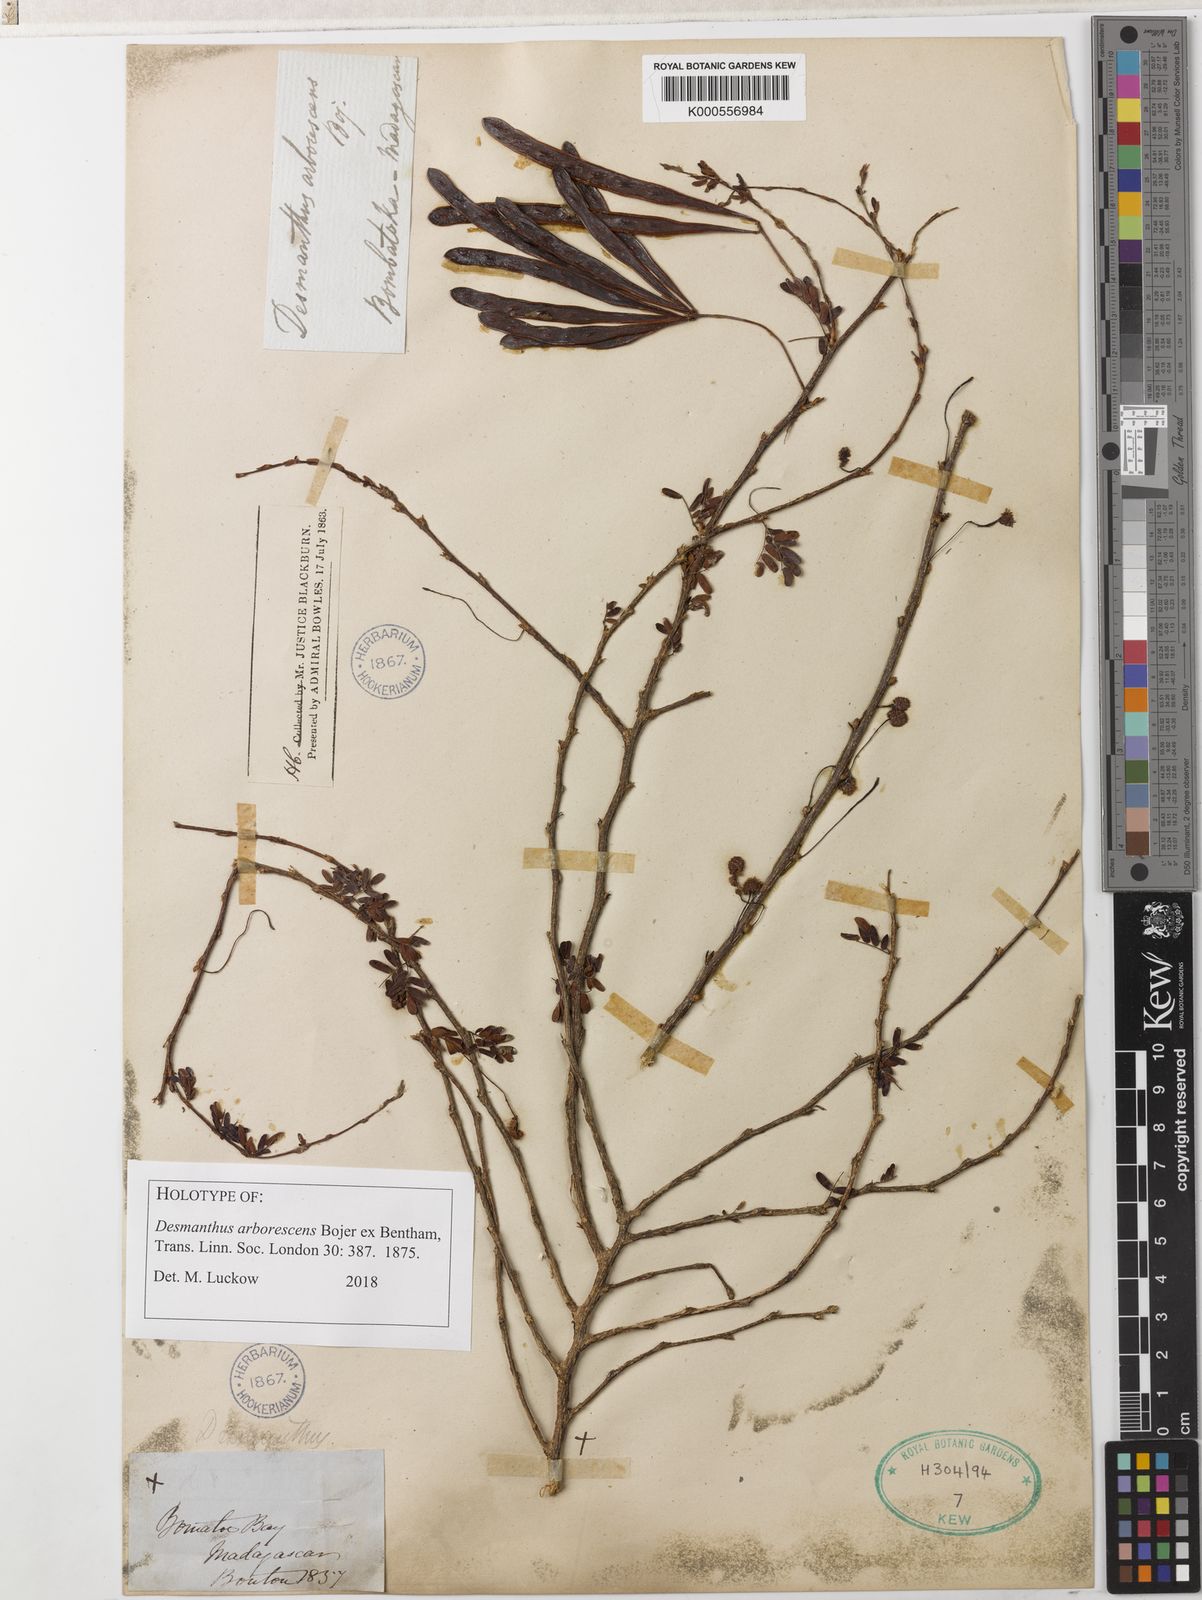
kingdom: Plantae
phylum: Tracheophyta
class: Magnoliopsida
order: Fabales
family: Fabaceae
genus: Dichrostachys
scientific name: Dichrostachys arborescens
